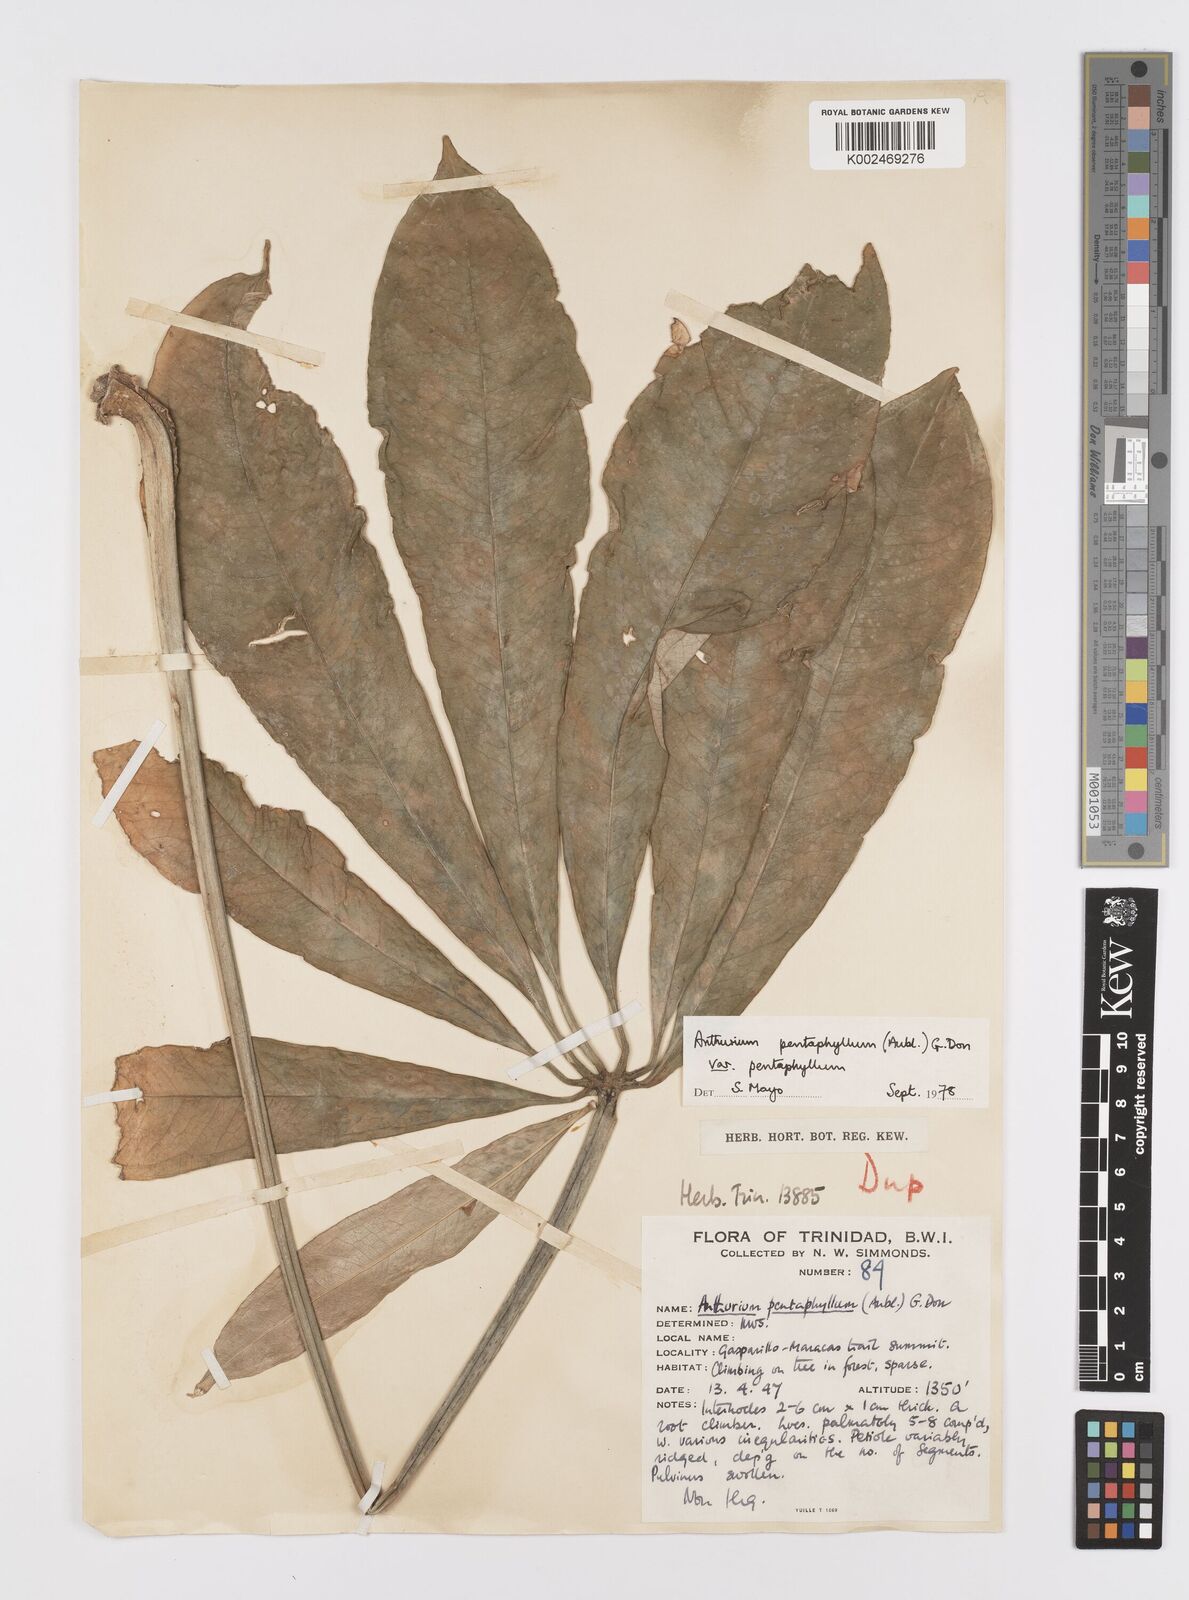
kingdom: Plantae
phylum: Tracheophyta
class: Liliopsida
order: Alismatales
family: Araceae
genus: Anthurium
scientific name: Anthurium pentaphyllum
